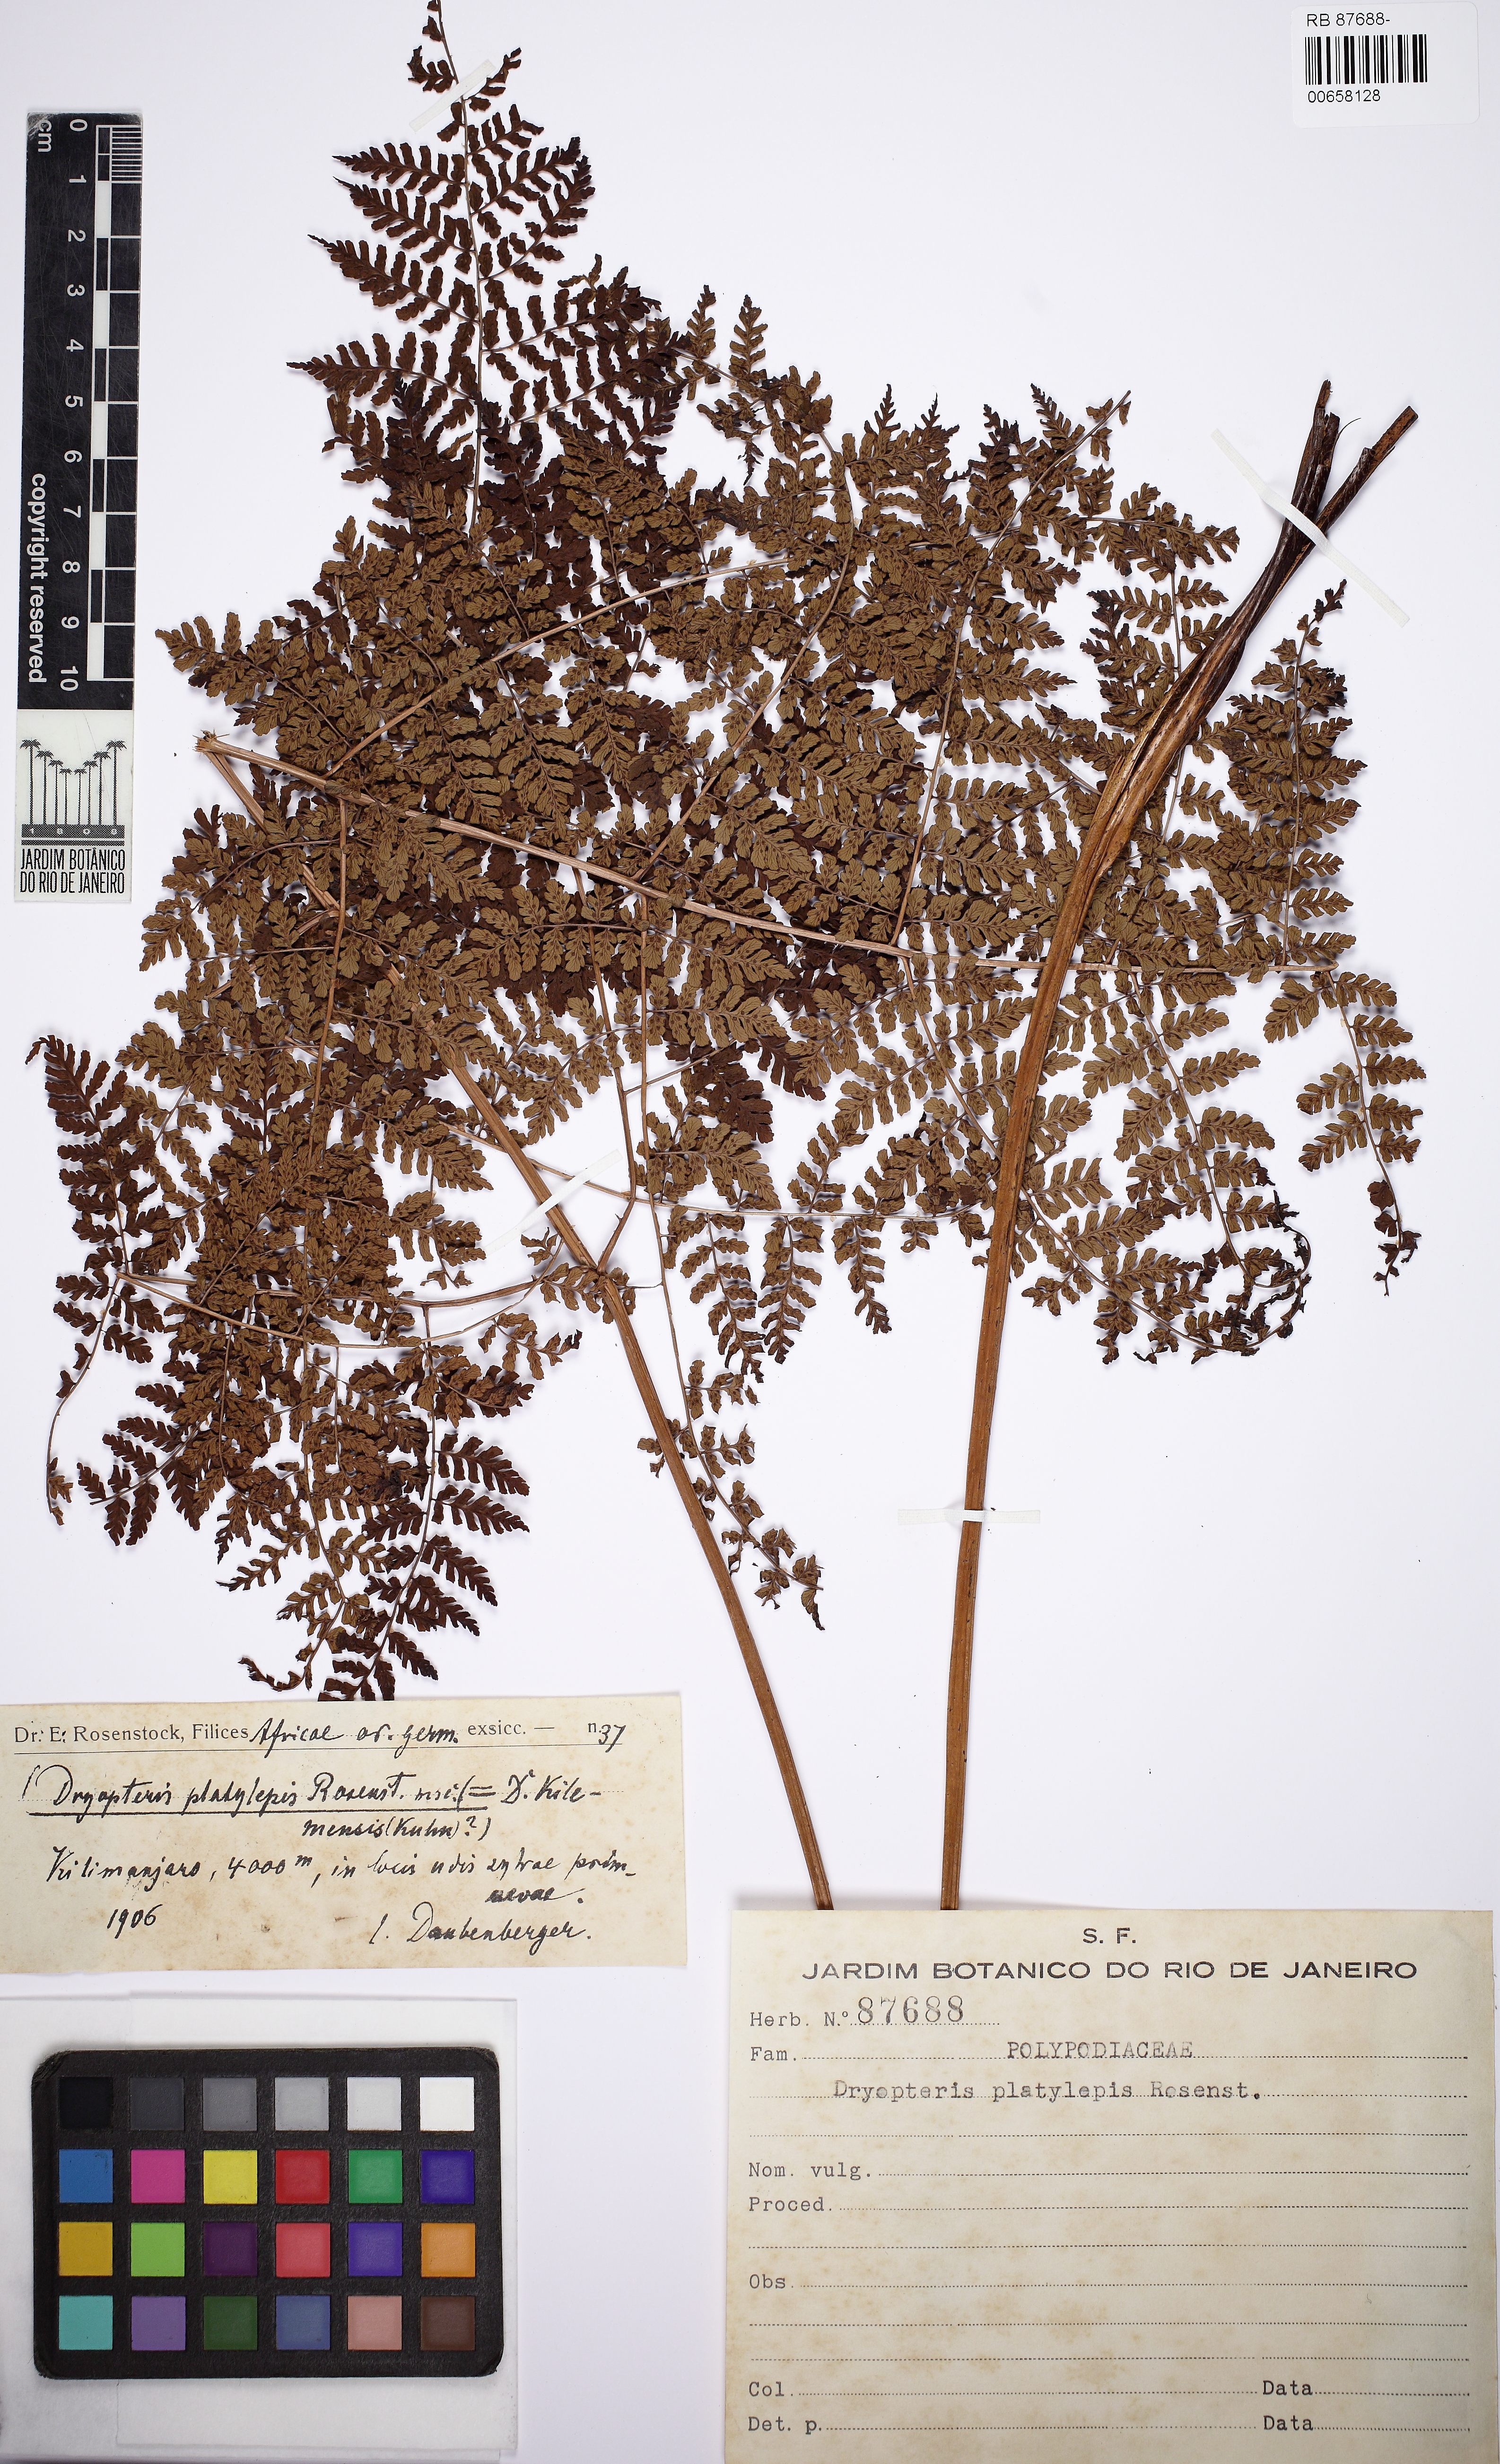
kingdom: Plantae
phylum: Tracheophyta
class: Polypodiopsida
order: Polypodiales
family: Dryopteridaceae
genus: Dryopteris
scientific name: Dryopteris kilemensis
